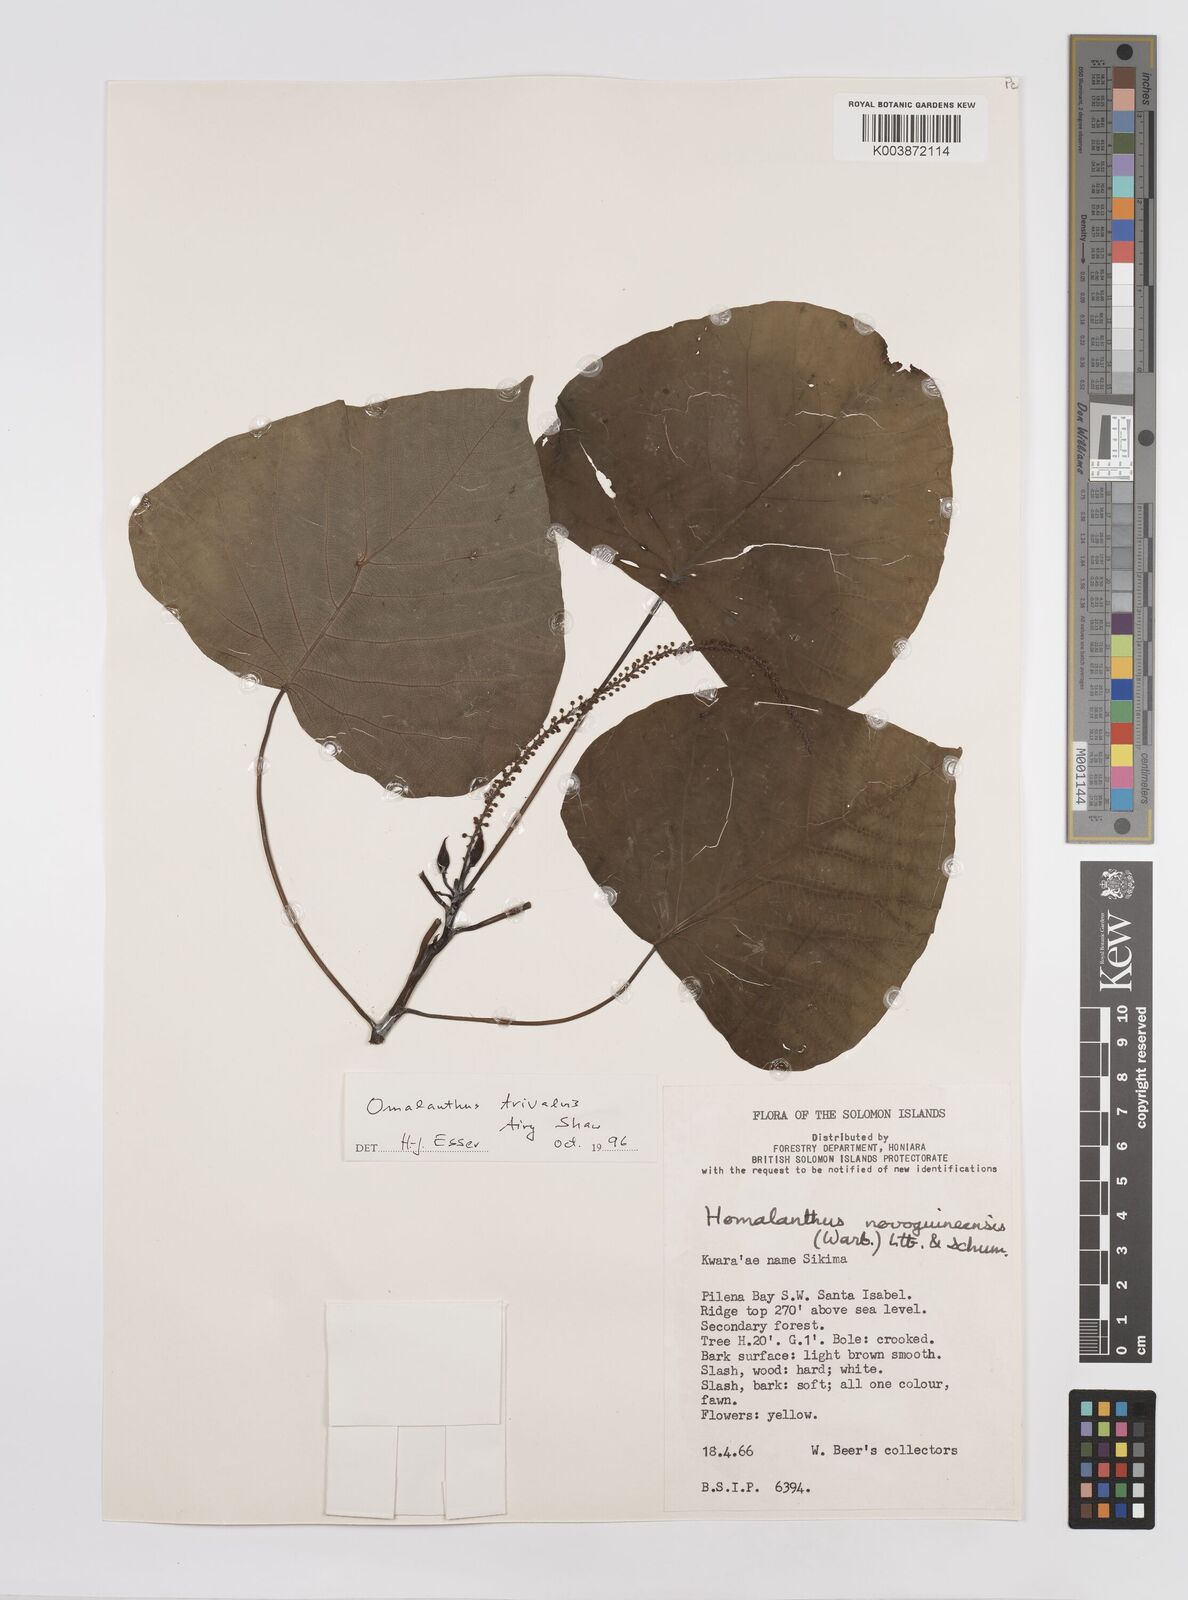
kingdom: Plantae
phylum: Tracheophyta
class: Magnoliopsida
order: Malpighiales
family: Euphorbiaceae
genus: Homalanthus
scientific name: Homalanthus trivalvis
